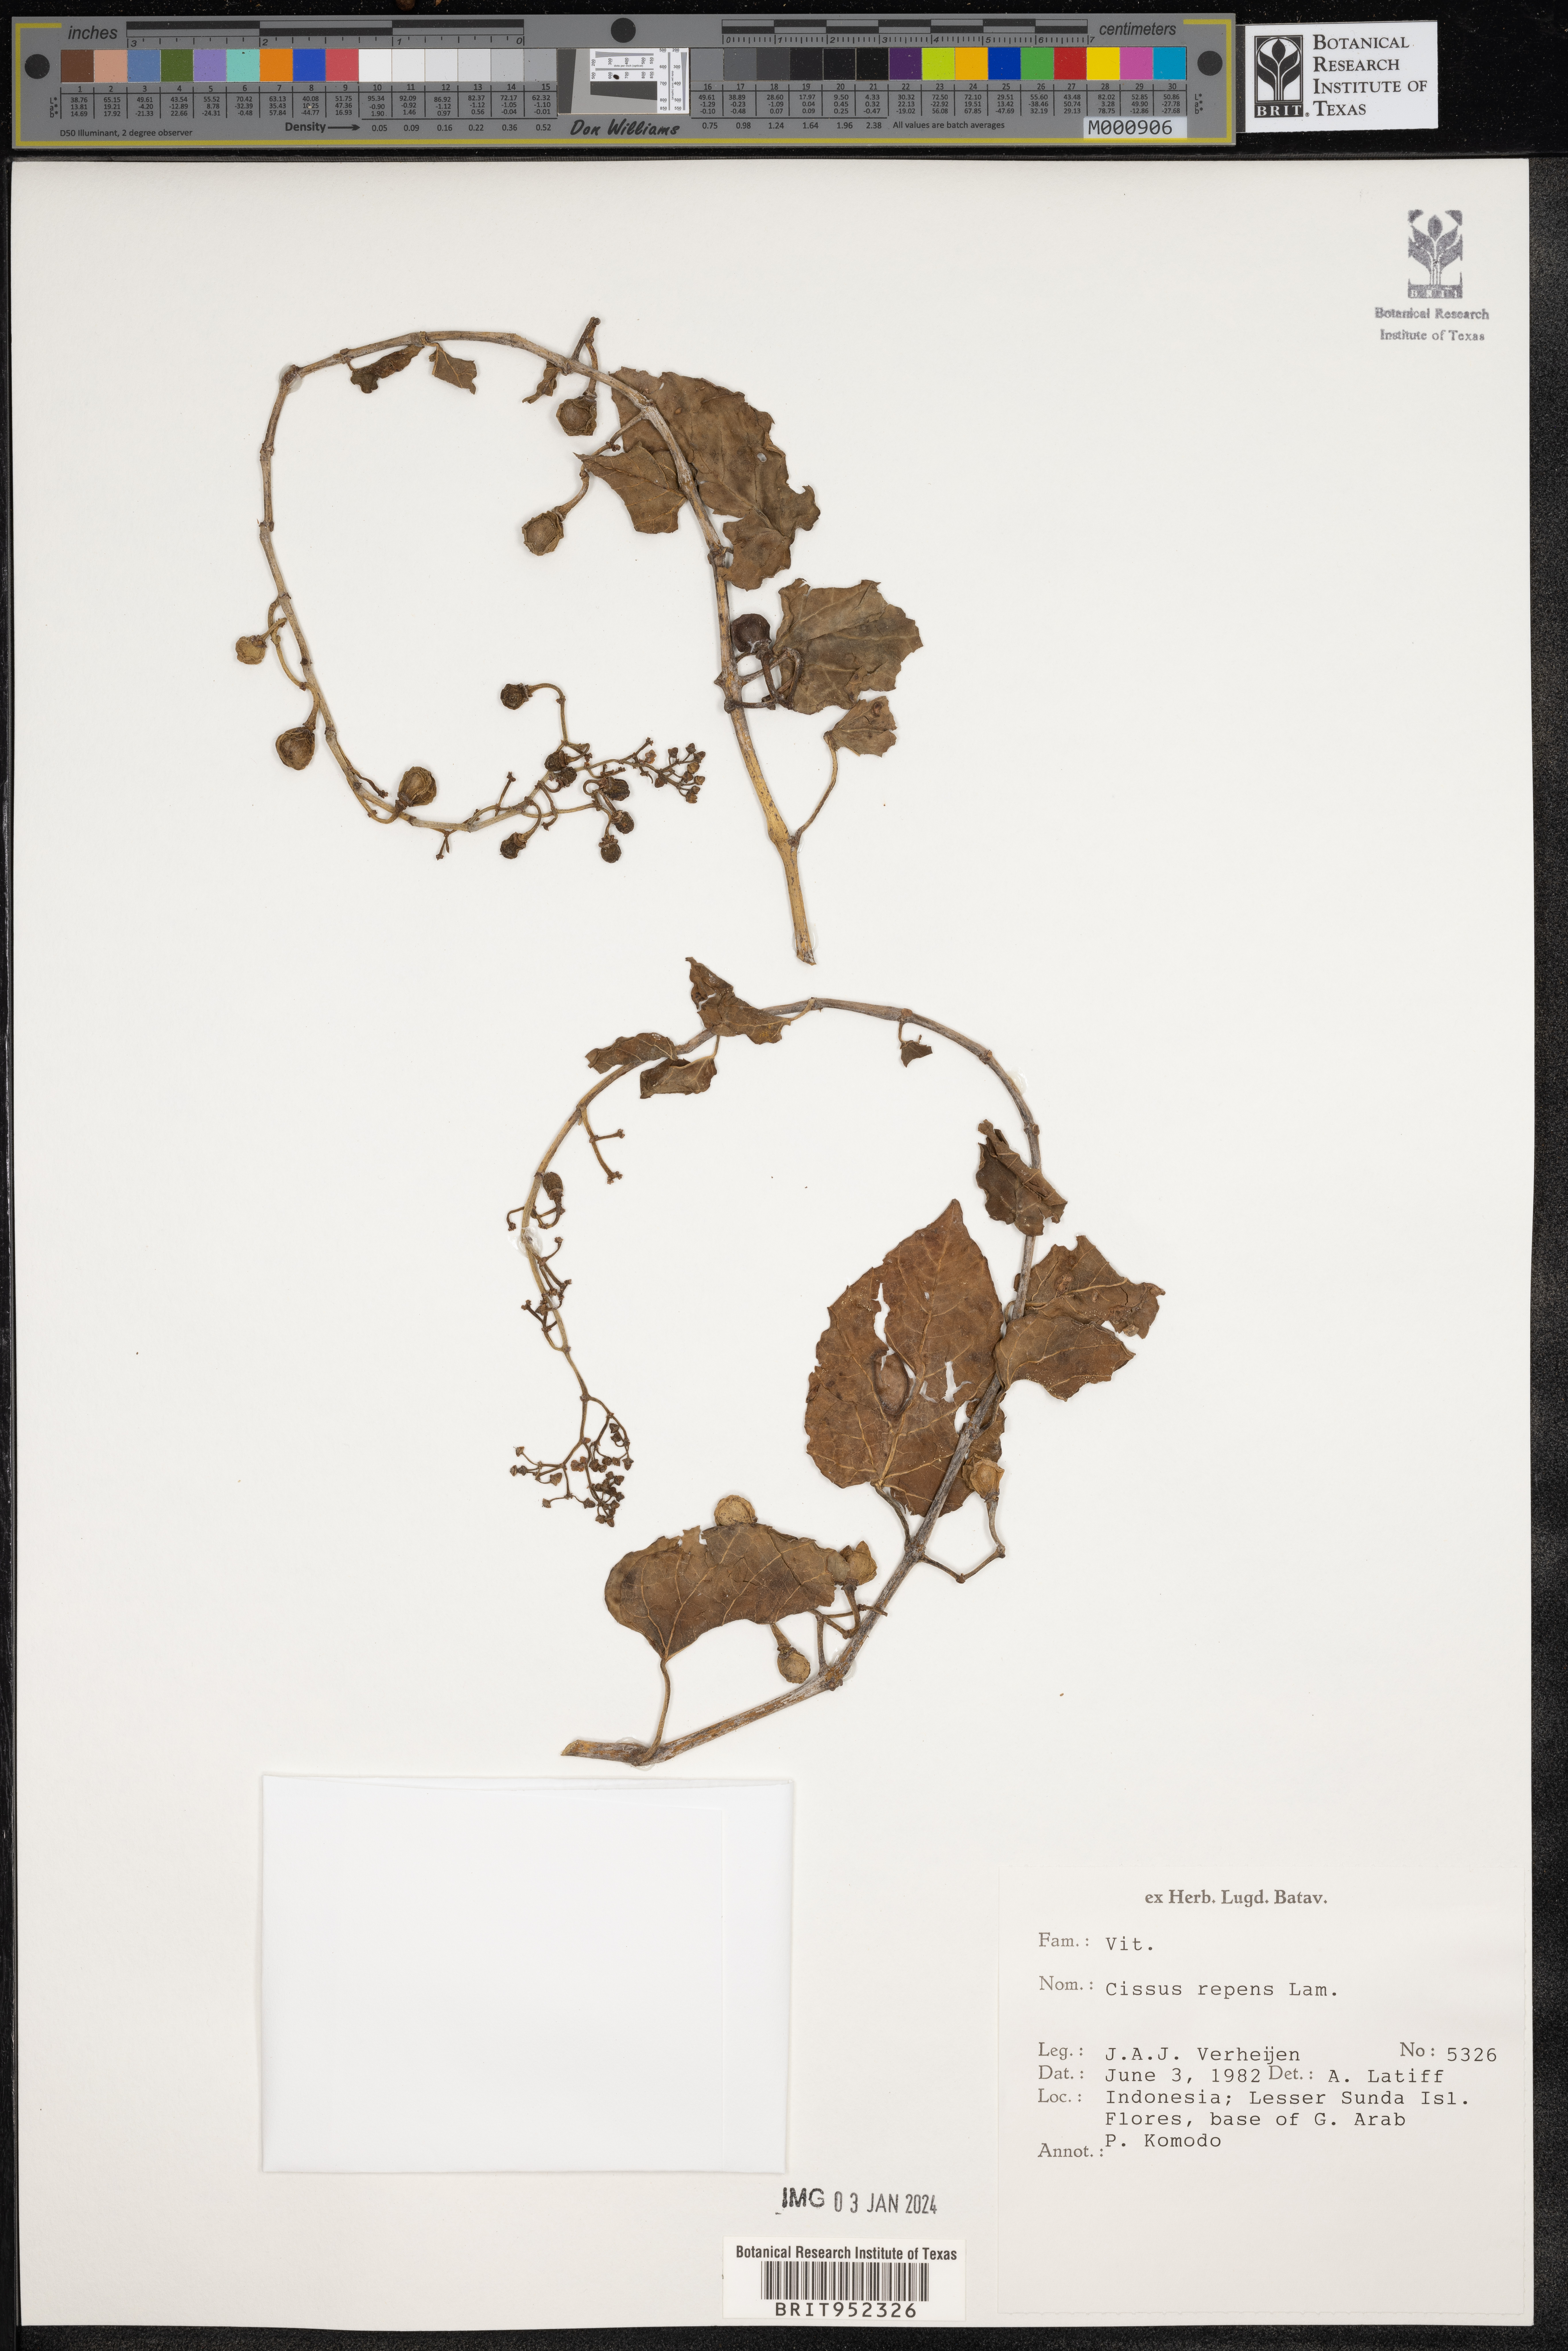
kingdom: Plantae
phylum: Tracheophyta
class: Magnoliopsida
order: Vitales
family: Vitaceae
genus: Cissus
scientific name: Cissus
